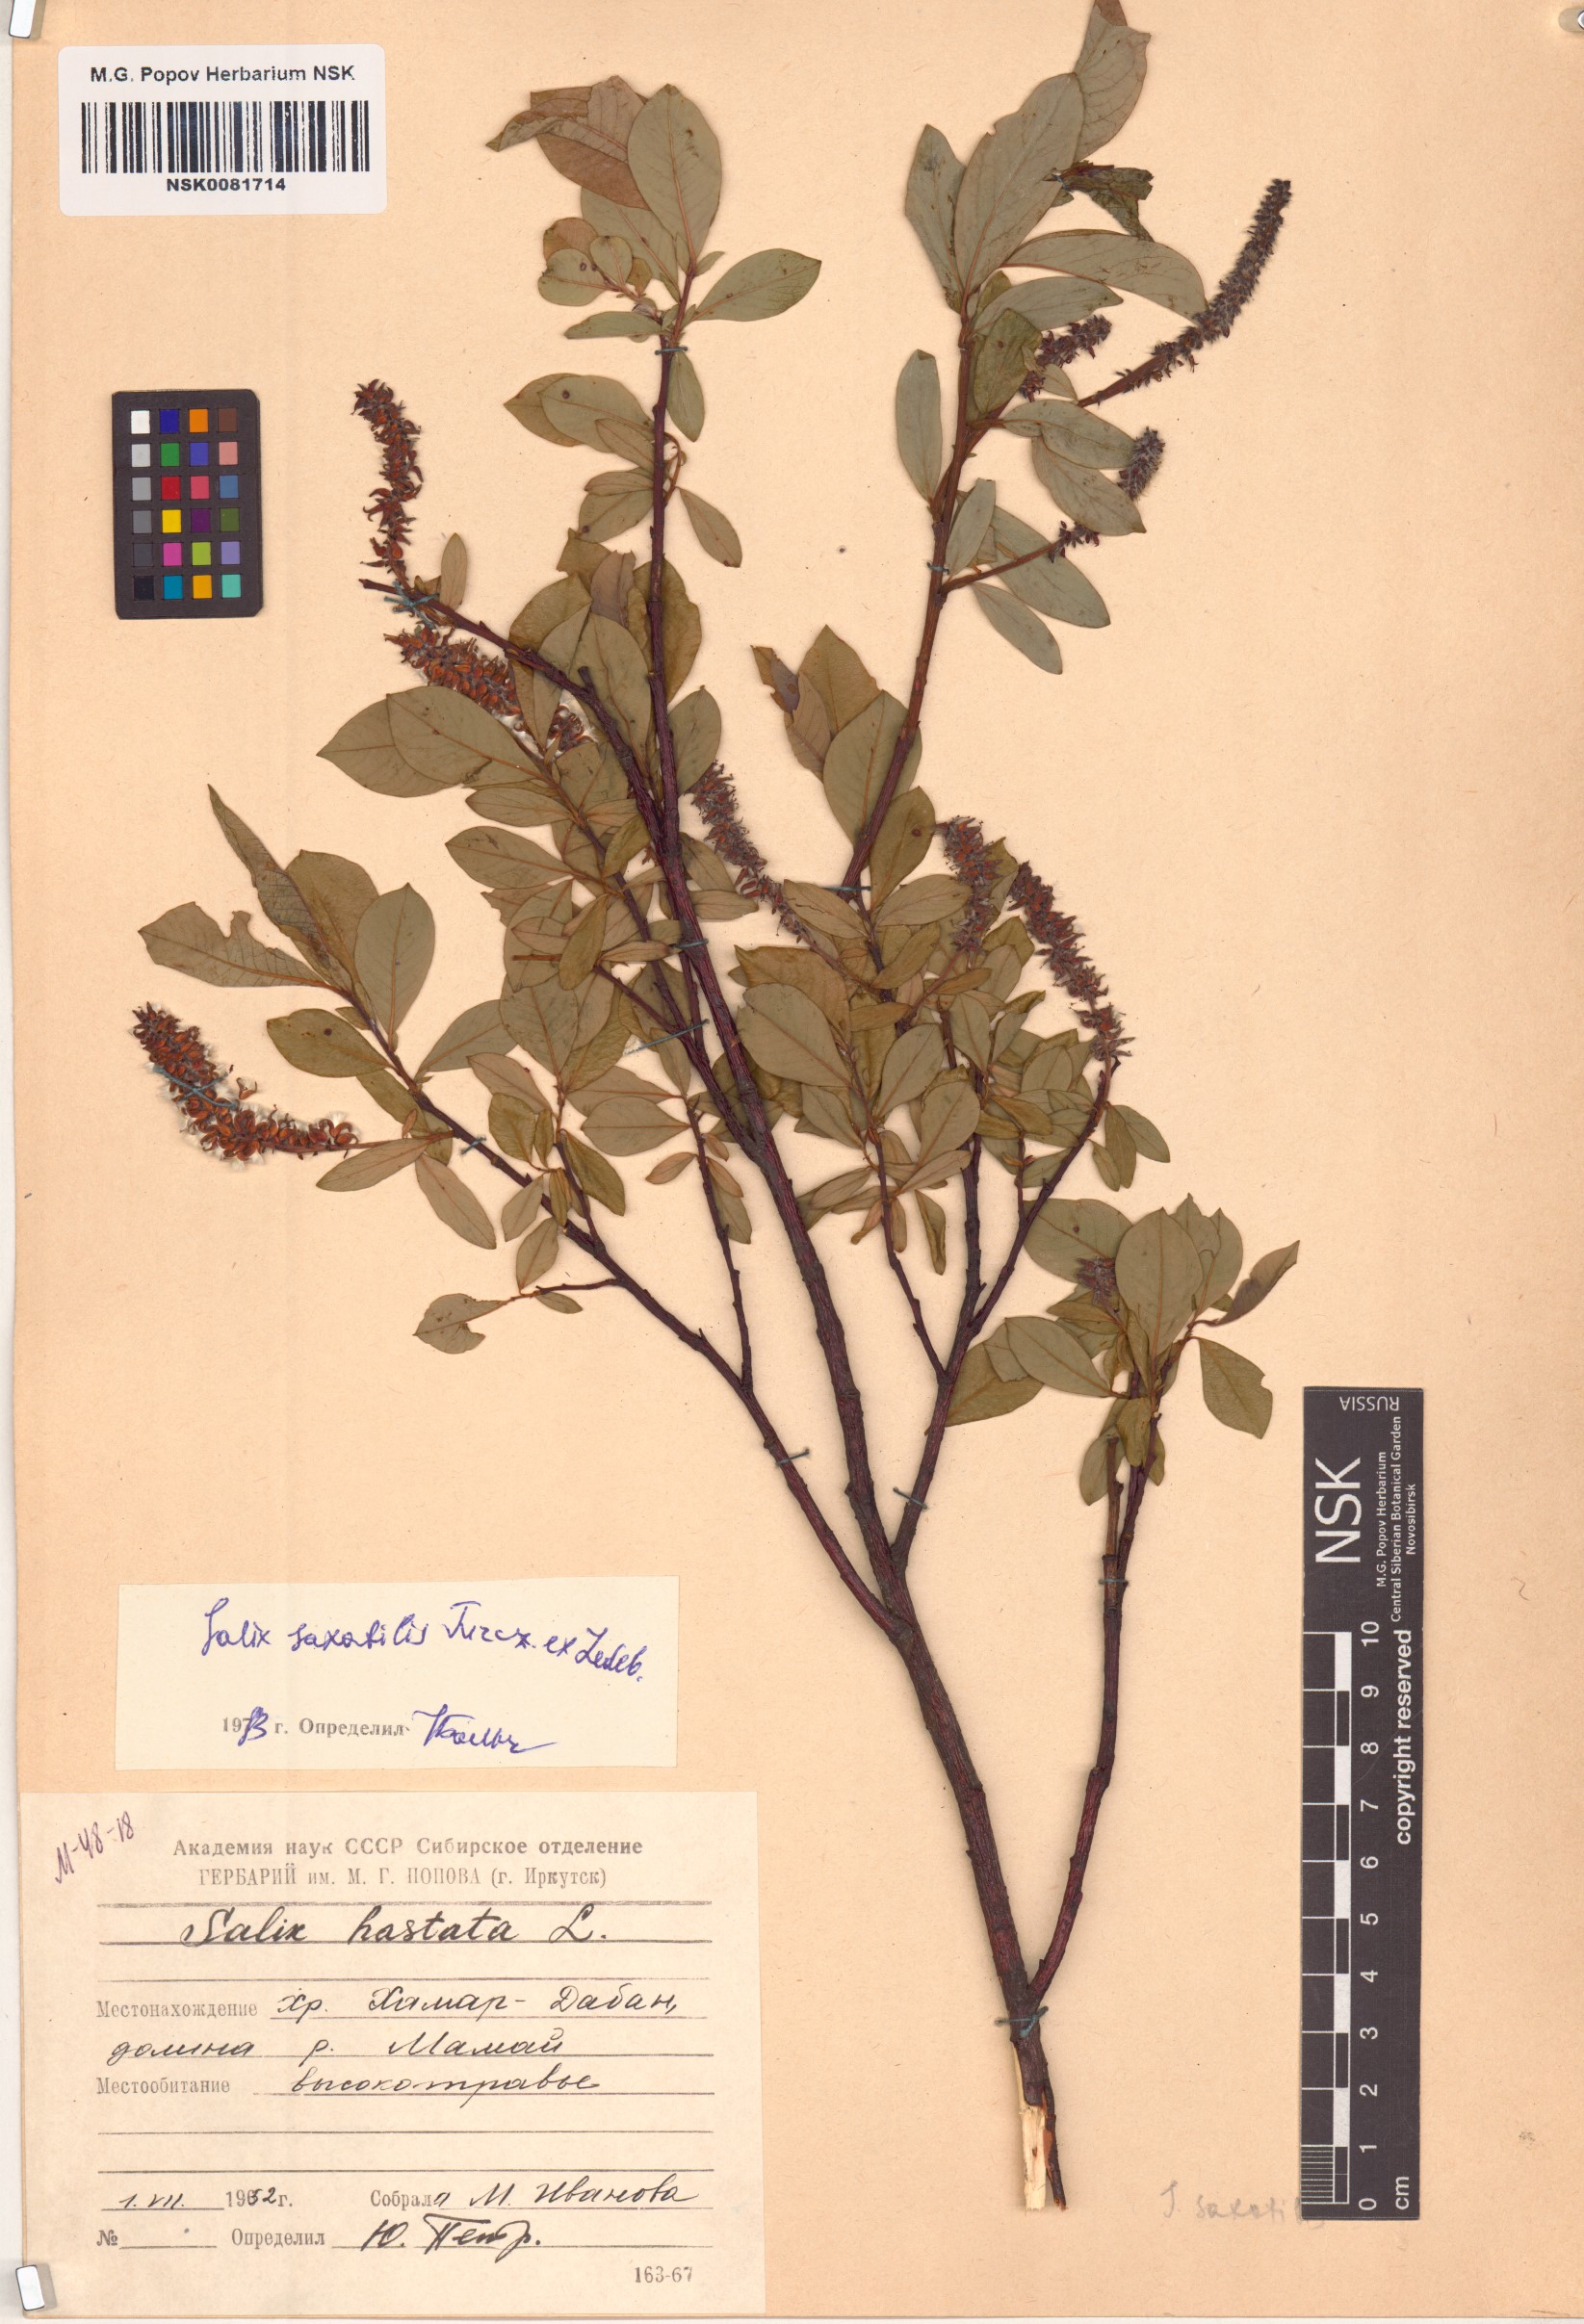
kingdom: Plantae
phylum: Tracheophyta
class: Magnoliopsida
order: Malpighiales
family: Salicaceae
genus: Salix
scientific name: Salix saxatilis
